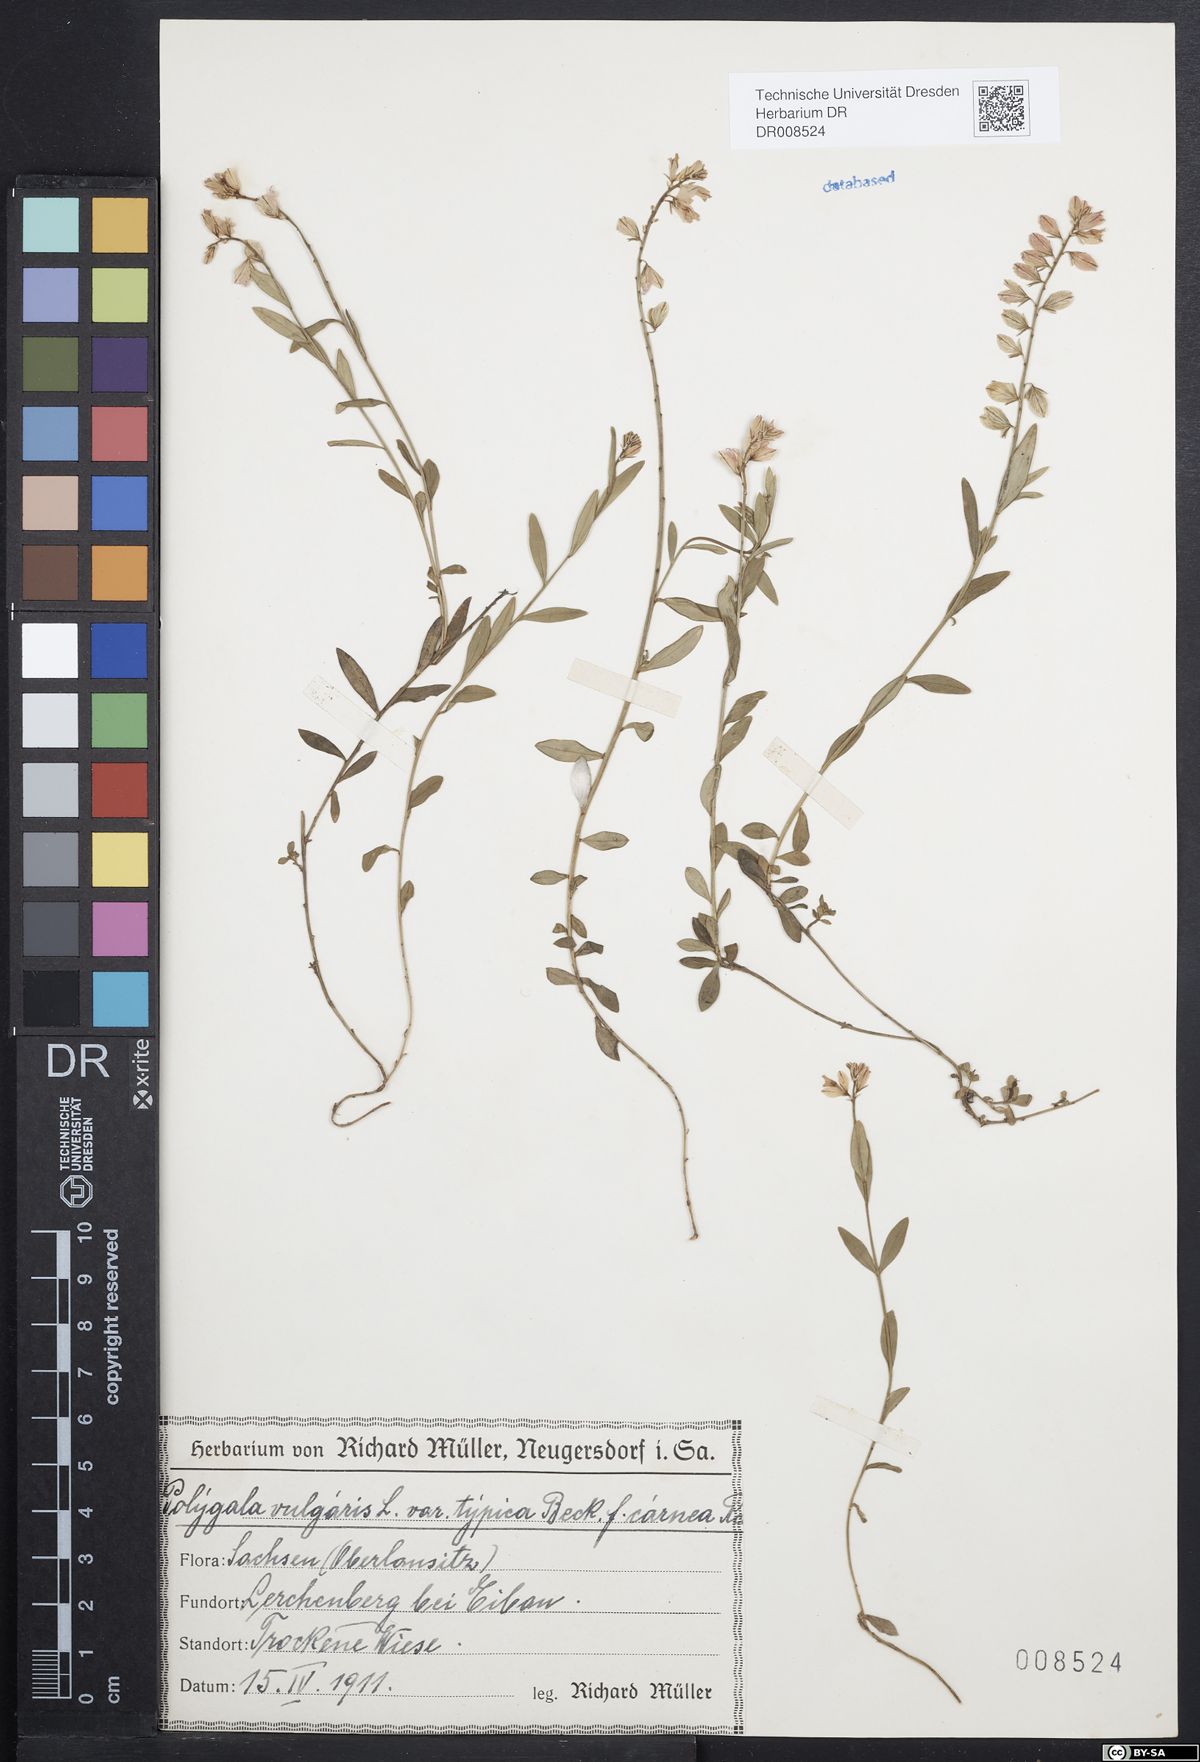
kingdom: Plantae
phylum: Tracheophyta
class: Magnoliopsida
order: Fabales
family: Polygalaceae
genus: Polygala
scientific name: Polygala vulgaris
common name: Common milkwort
